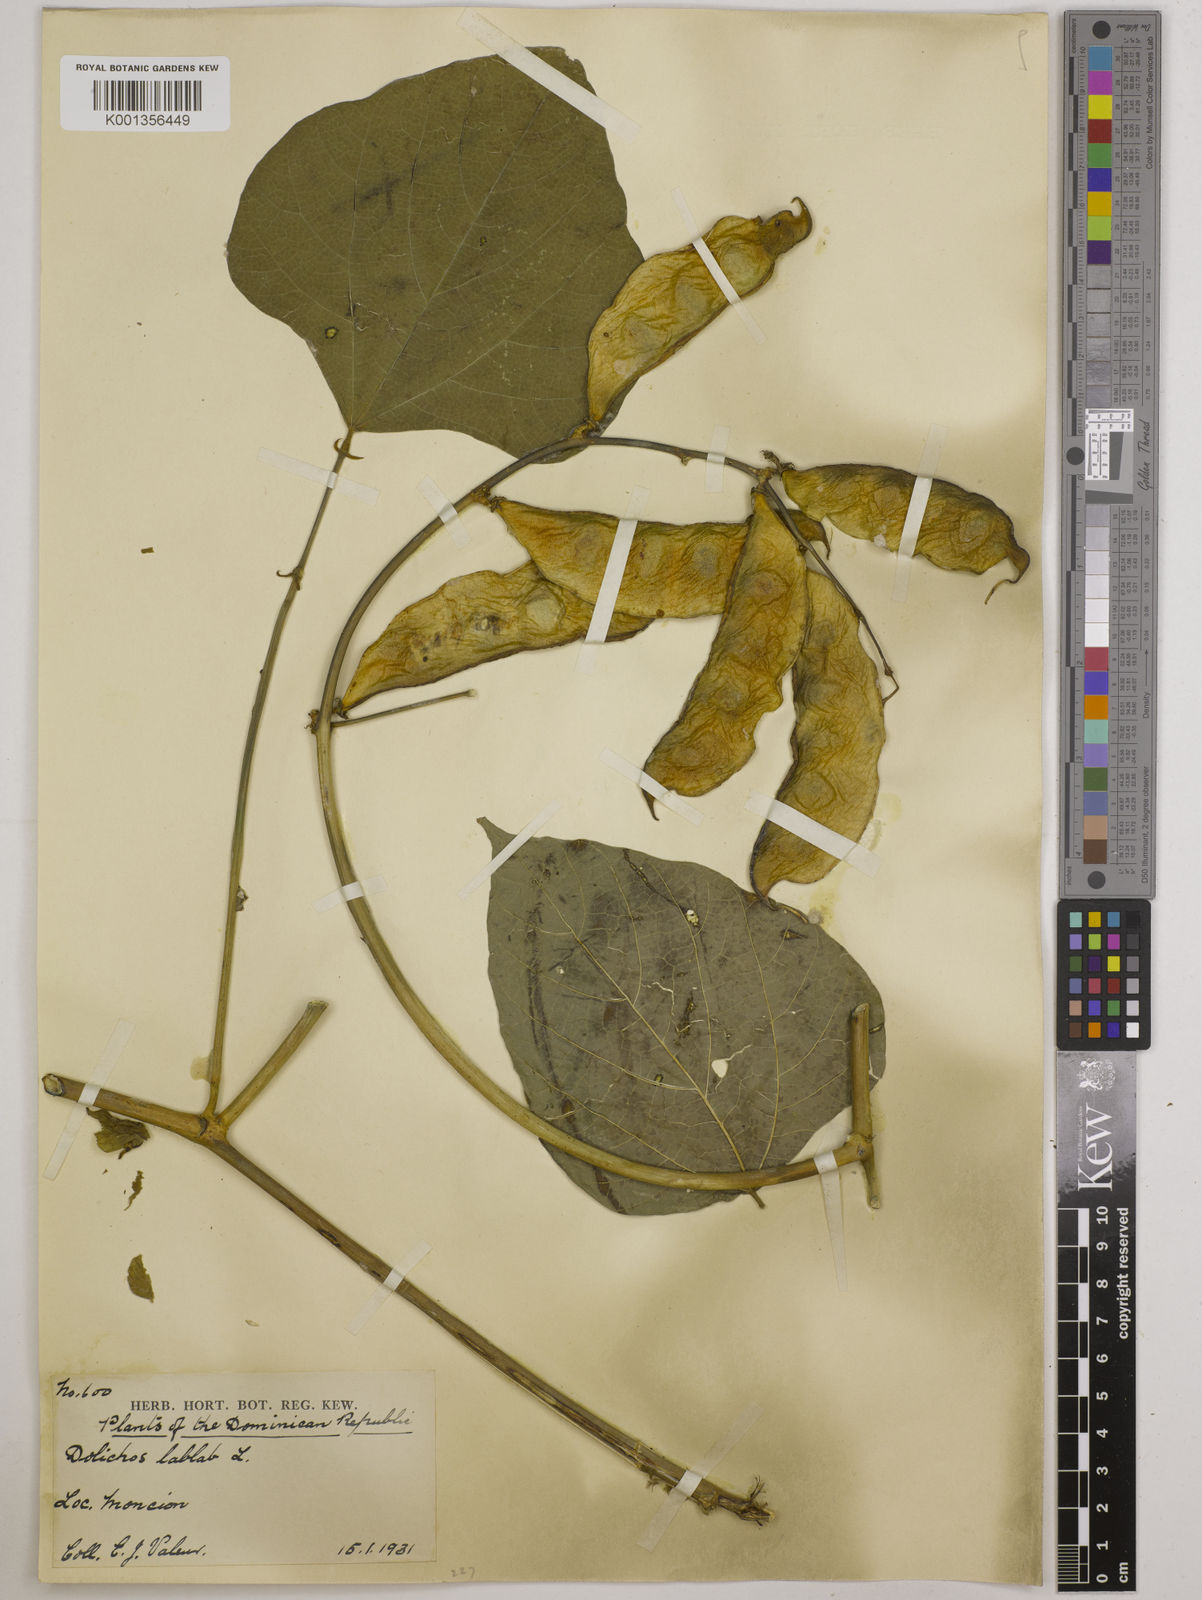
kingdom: Plantae
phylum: Tracheophyta
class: Magnoliopsida
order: Fabales
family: Fabaceae
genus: Lablab
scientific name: Lablab purpureus
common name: Lablab-bean
